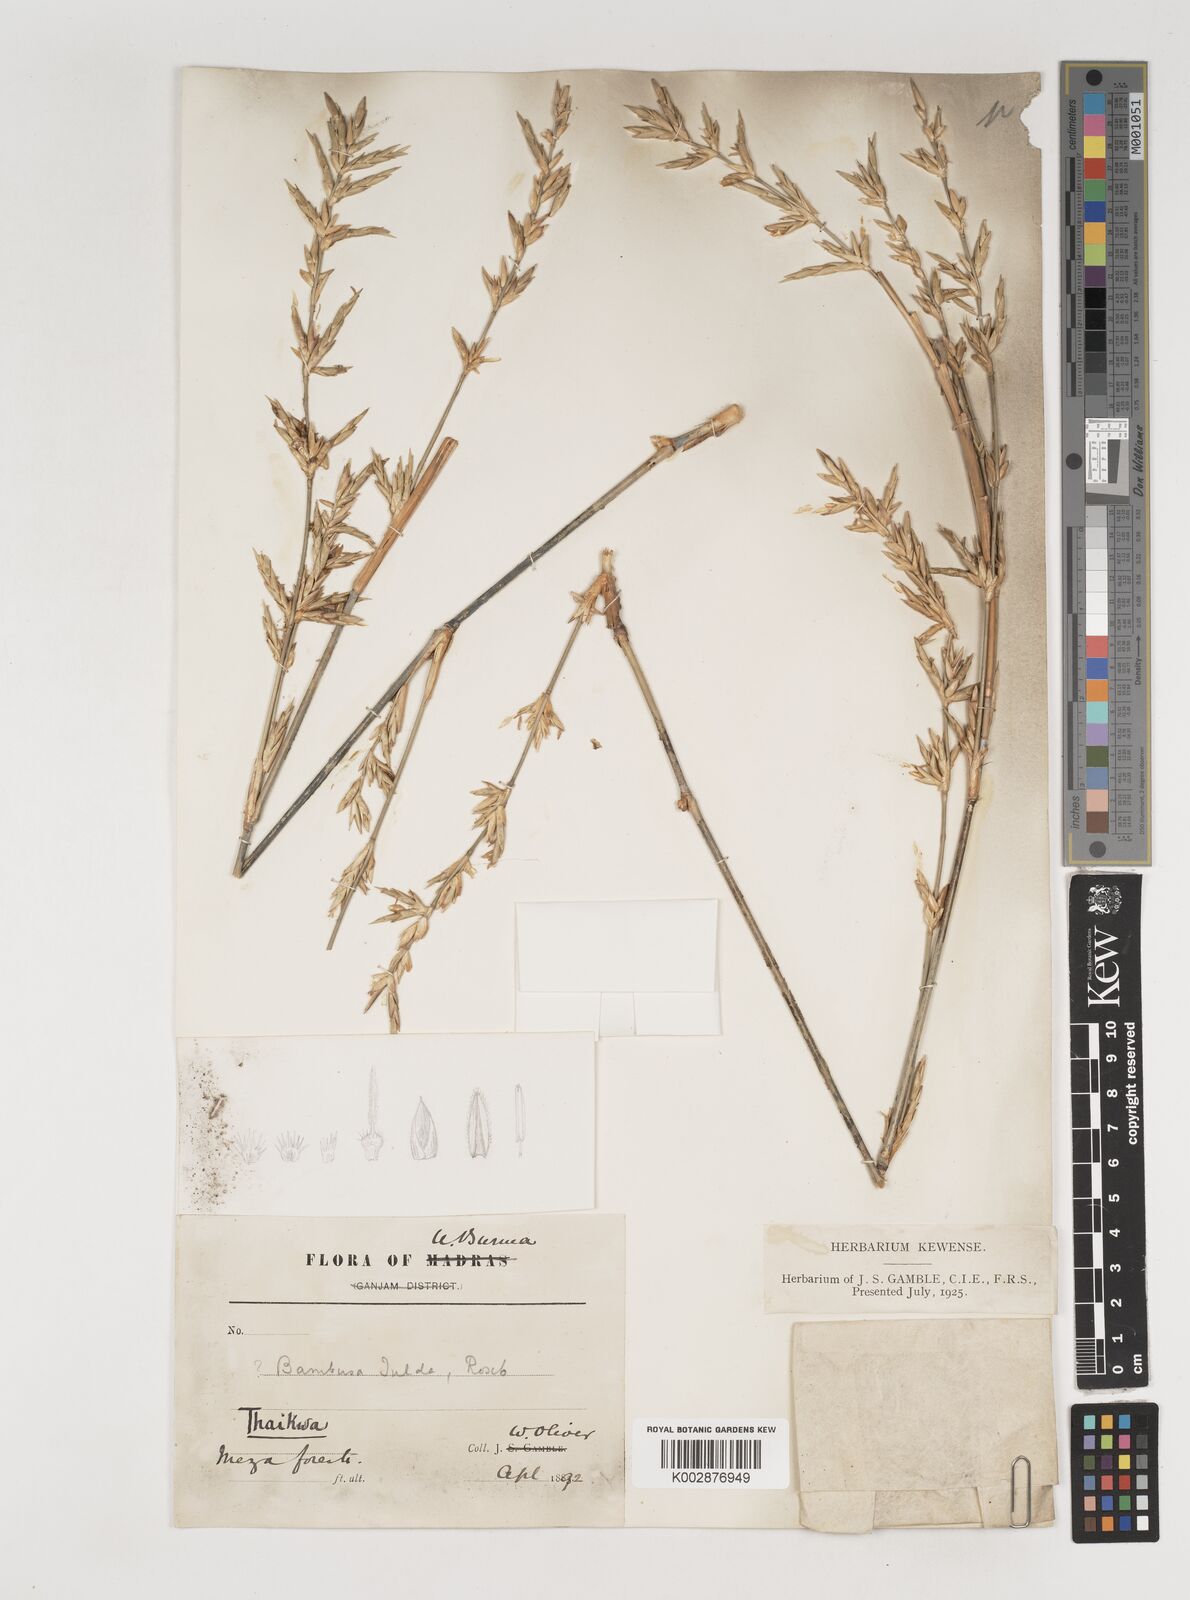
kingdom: Plantae
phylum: Tracheophyta
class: Liliopsida
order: Poales
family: Poaceae
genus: Bambusa
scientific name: Bambusa tulda
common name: Bengal bamboo
